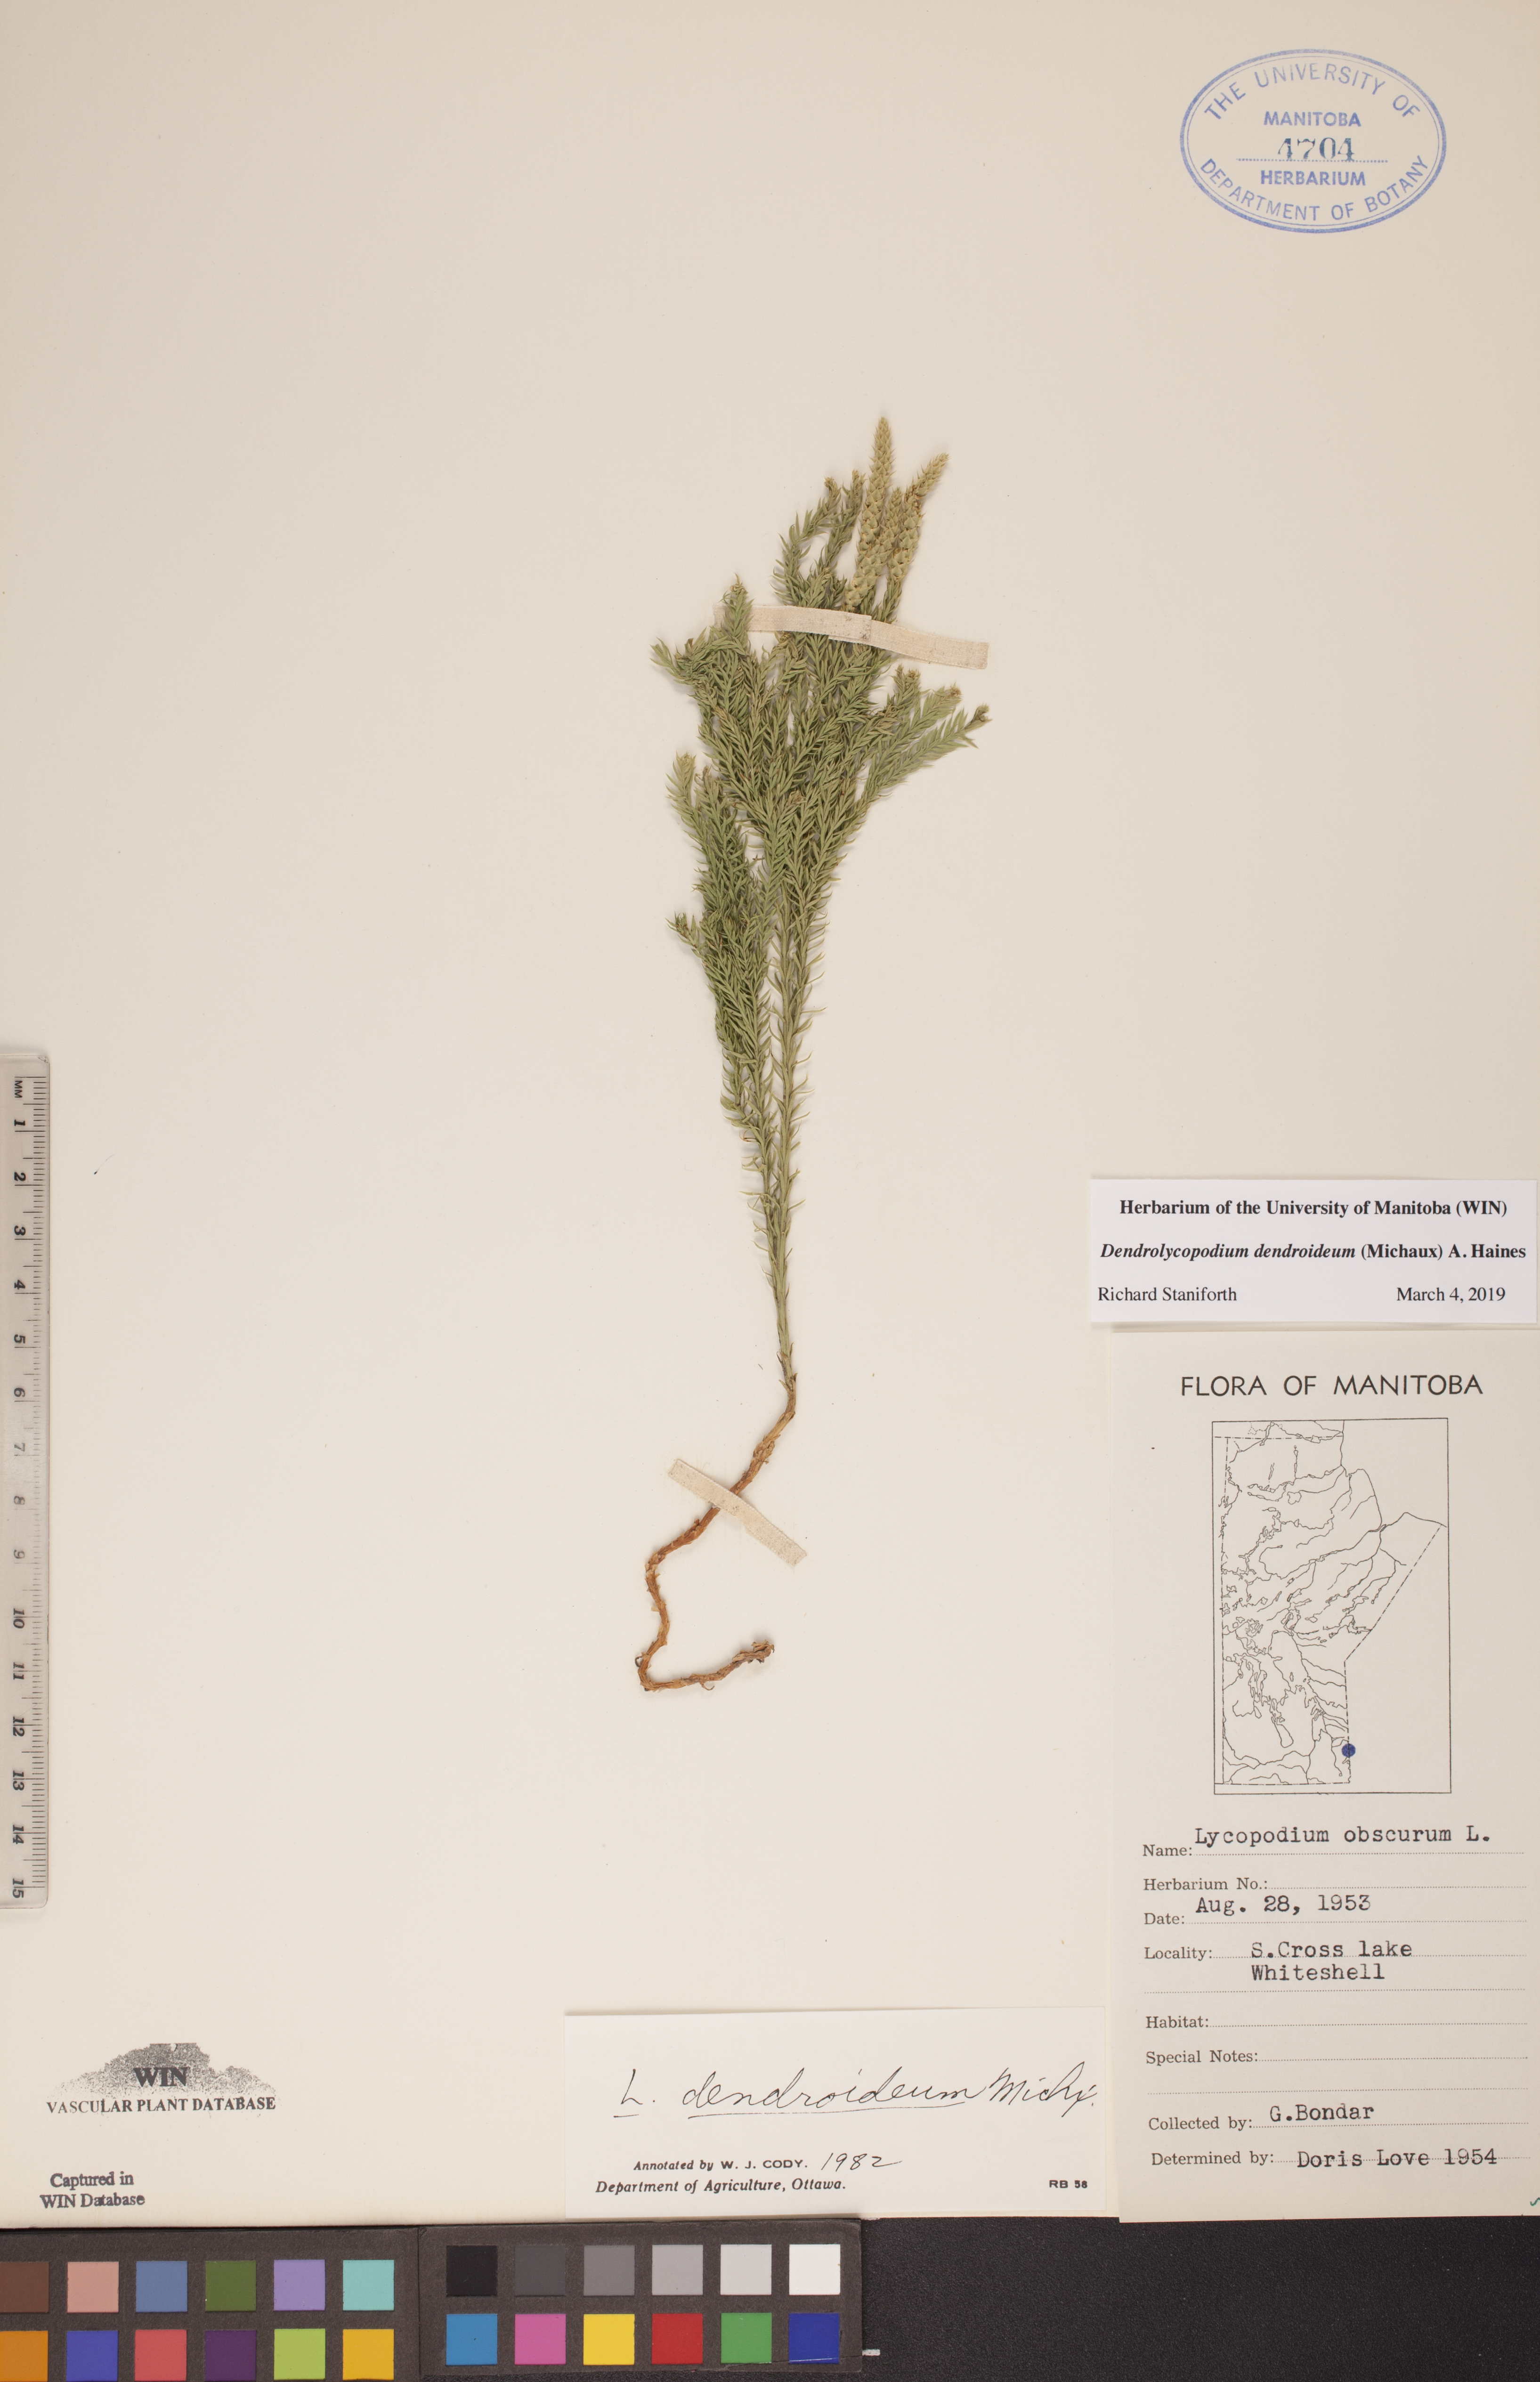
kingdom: Plantae
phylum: Tracheophyta
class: Lycopodiopsida
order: Lycopodiales
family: Lycopodiaceae
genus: Dendrolycopodium
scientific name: Dendrolycopodium dendroideum
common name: Northern tree-clubmoss
